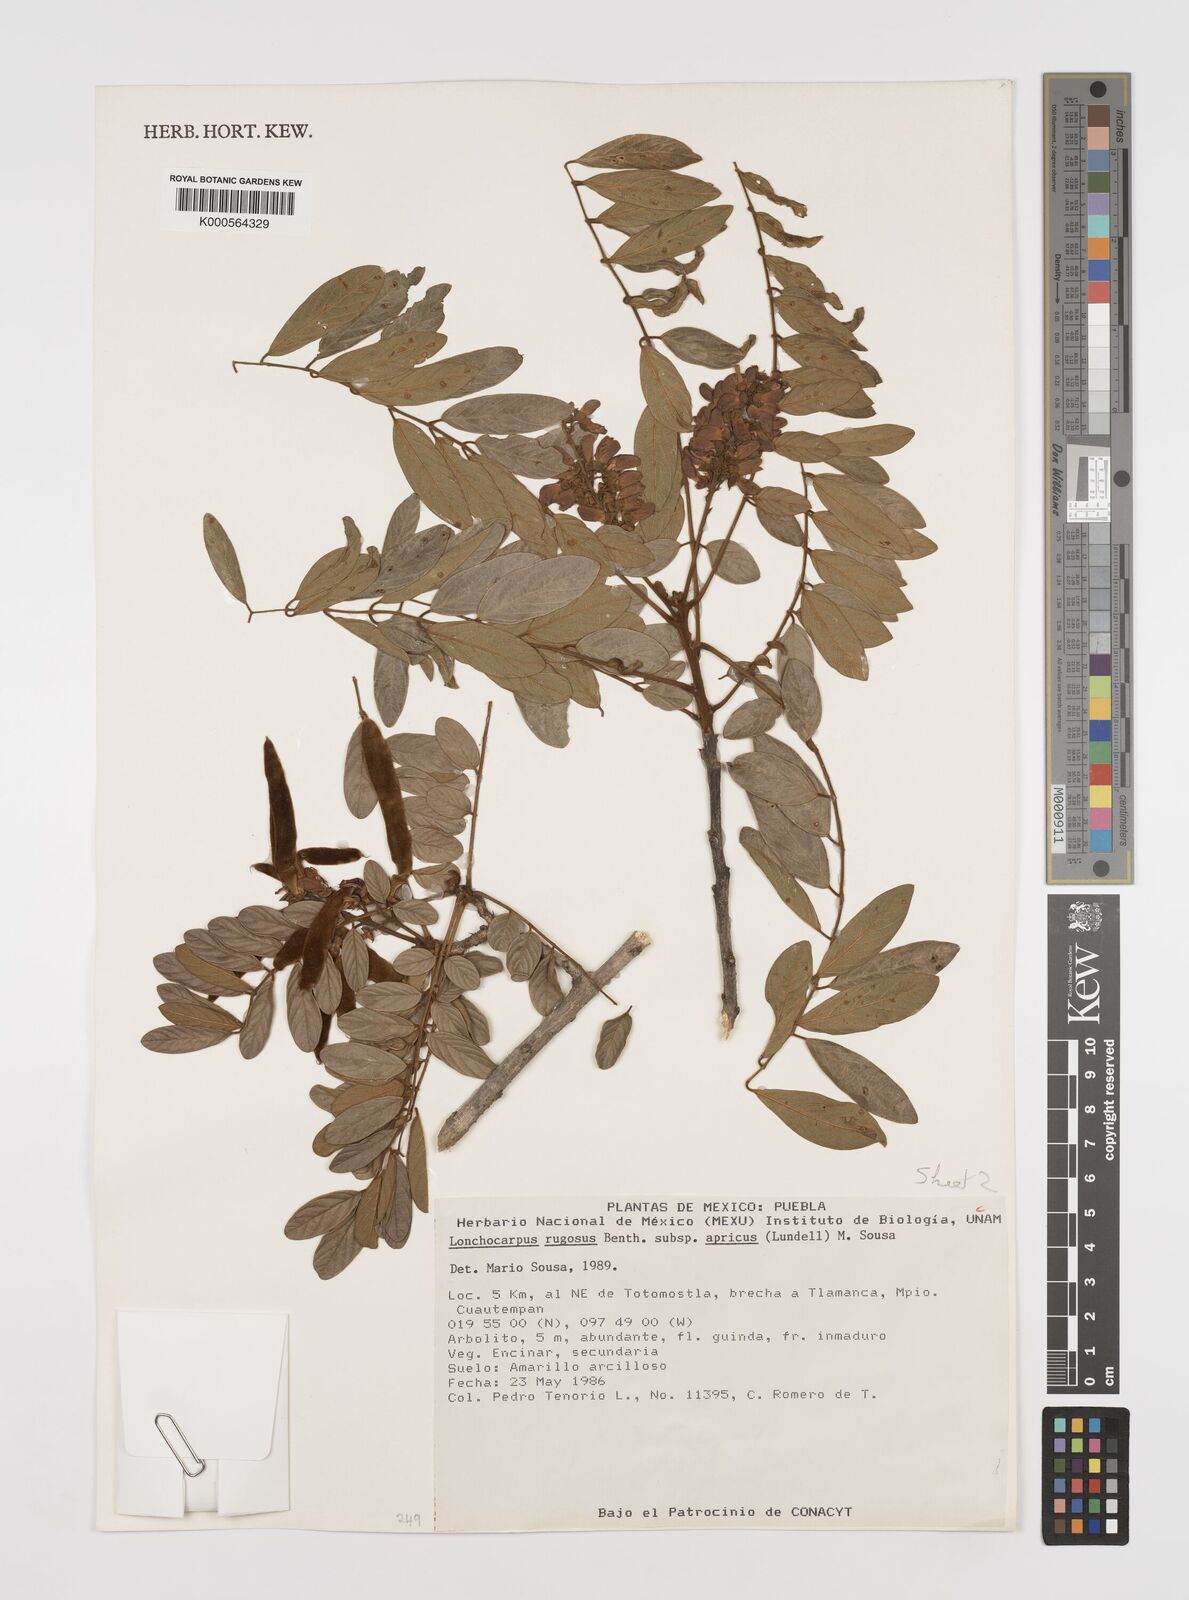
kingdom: Plantae
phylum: Tracheophyta
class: Magnoliopsida
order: Fabales
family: Fabaceae
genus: Lonchocarpus
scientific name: Lonchocarpus rugosus
